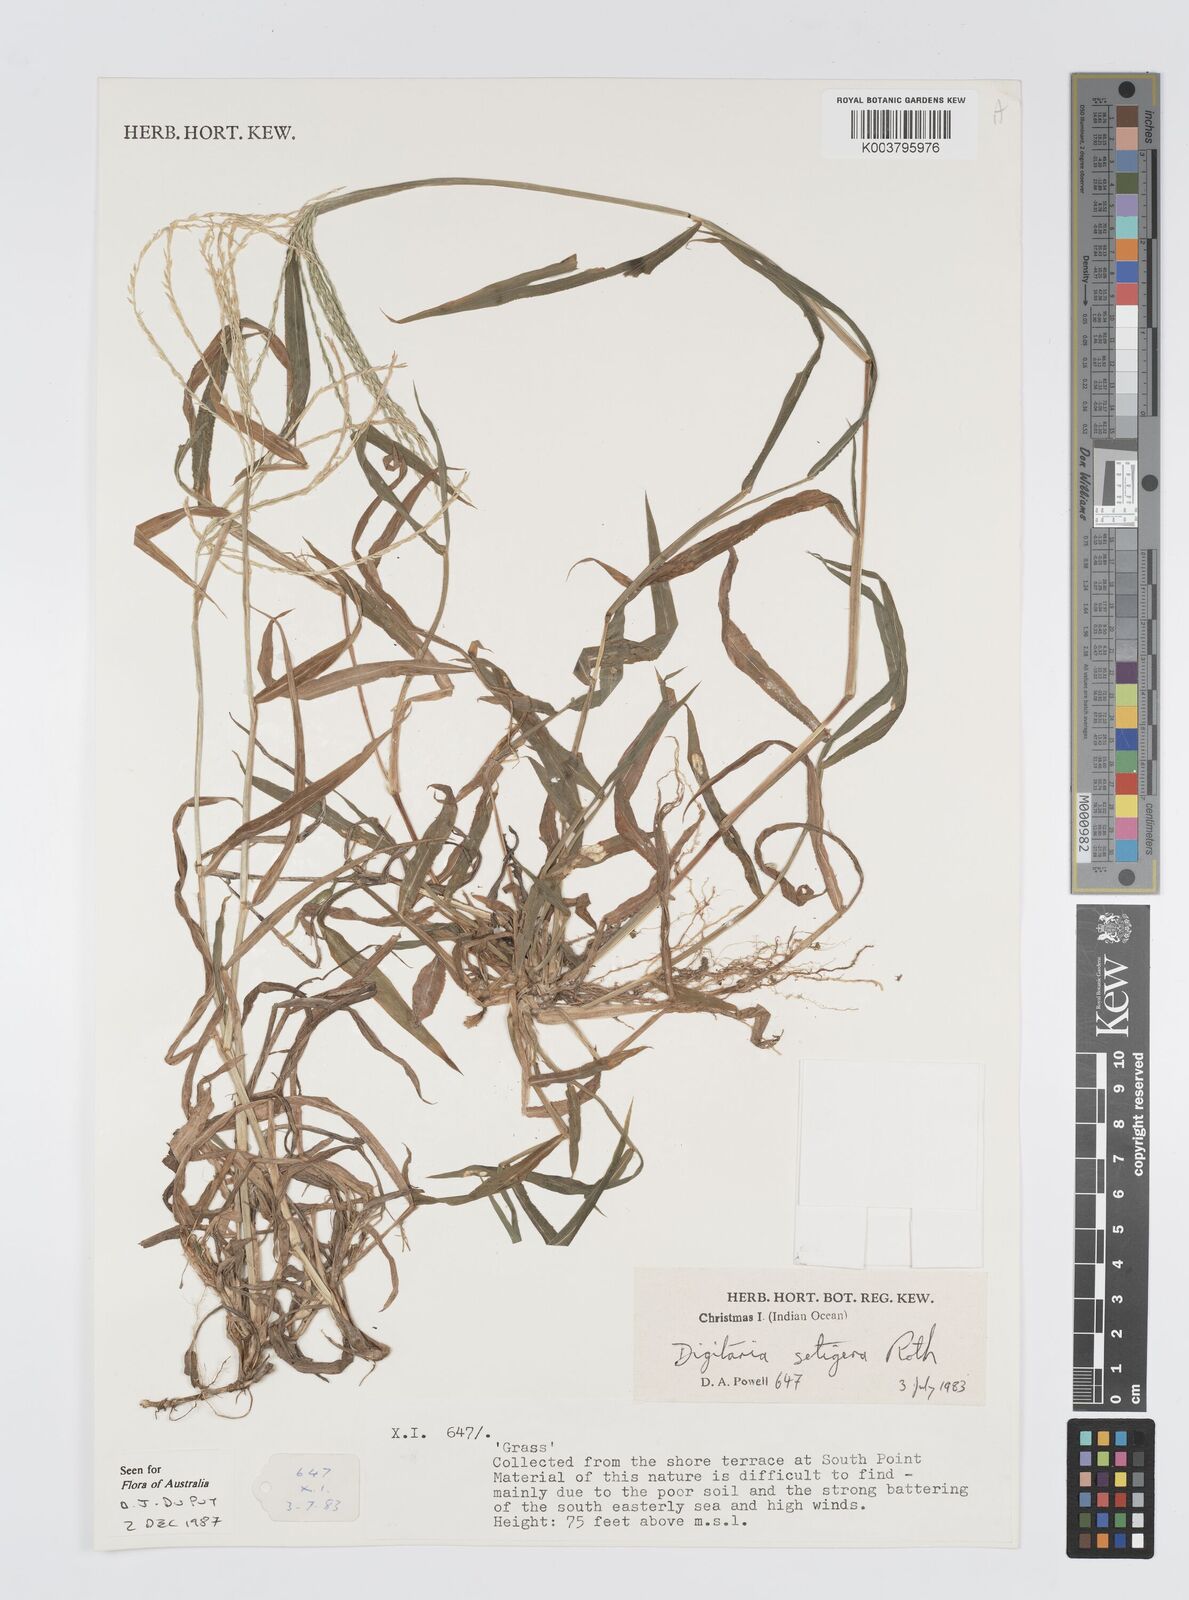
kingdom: Plantae
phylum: Tracheophyta
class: Liliopsida
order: Poales
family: Poaceae
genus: Digitaria
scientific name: Digitaria setigera
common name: East indian crabgrass
